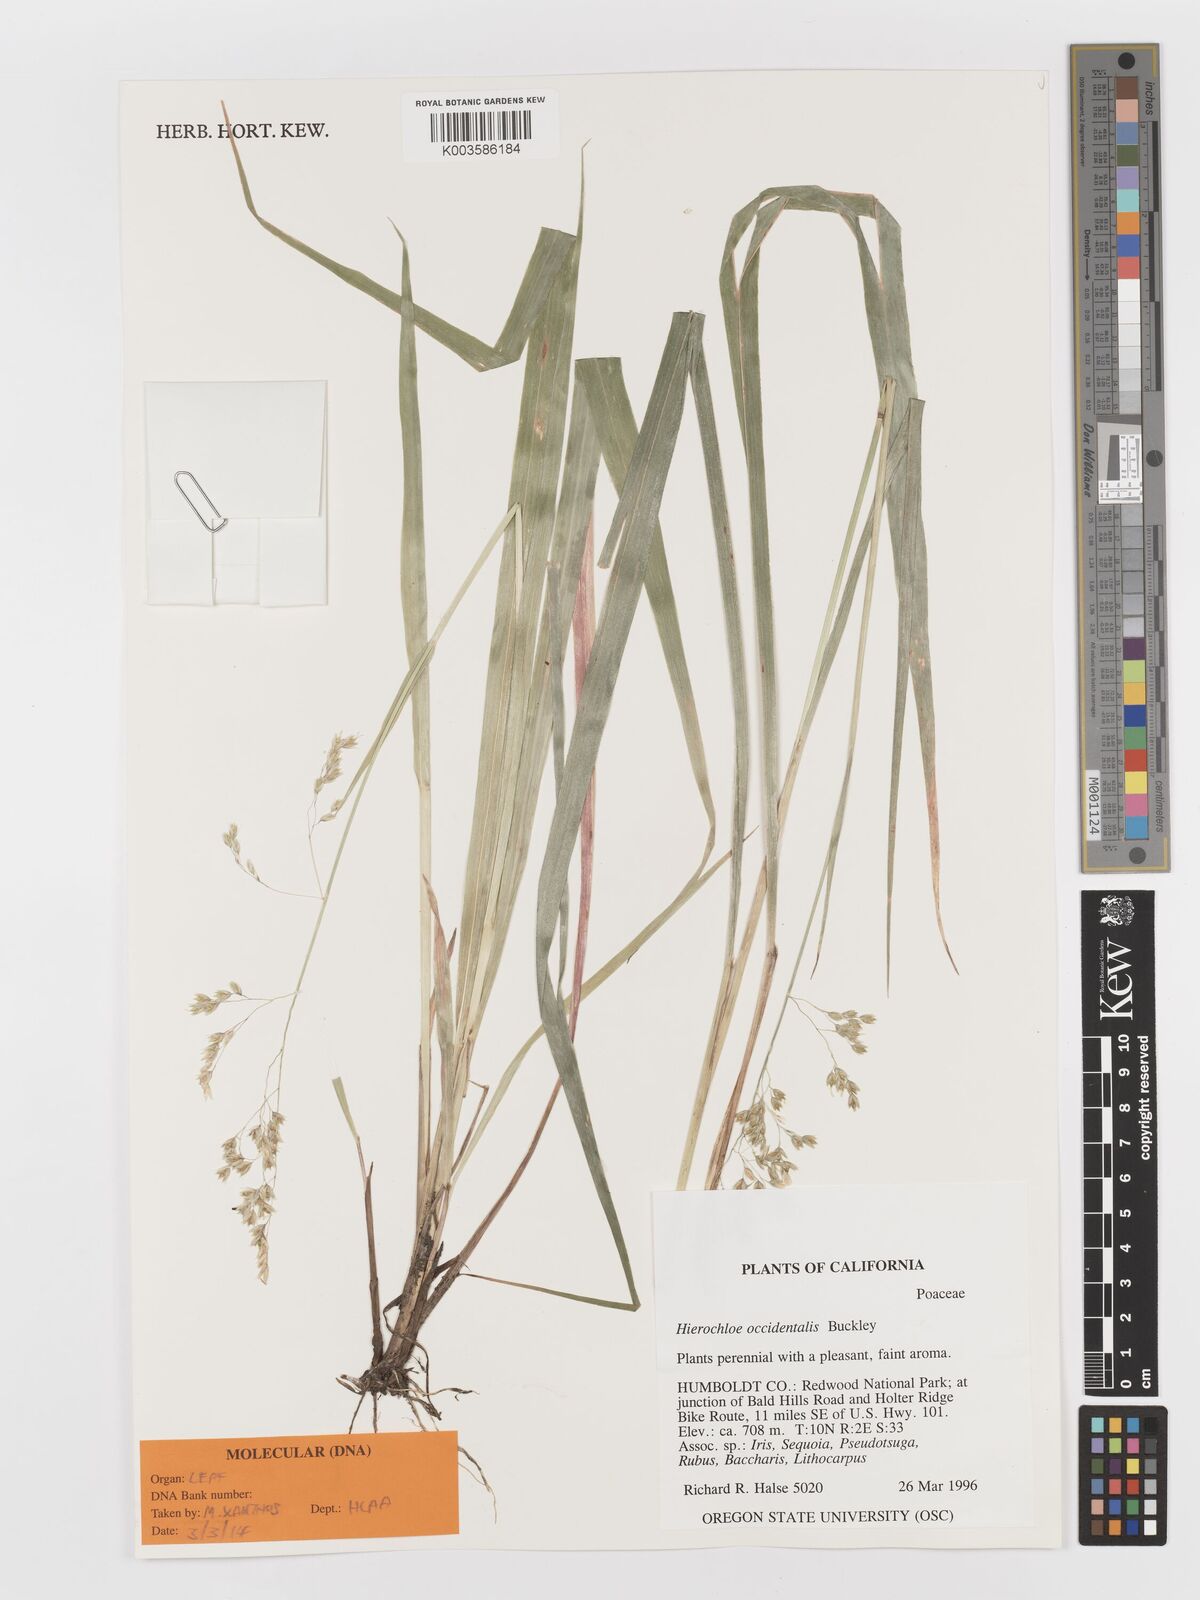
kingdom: Plantae
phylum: Tracheophyta
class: Liliopsida
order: Poales
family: Poaceae
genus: Anthoxanthum
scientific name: Anthoxanthum occidentale
